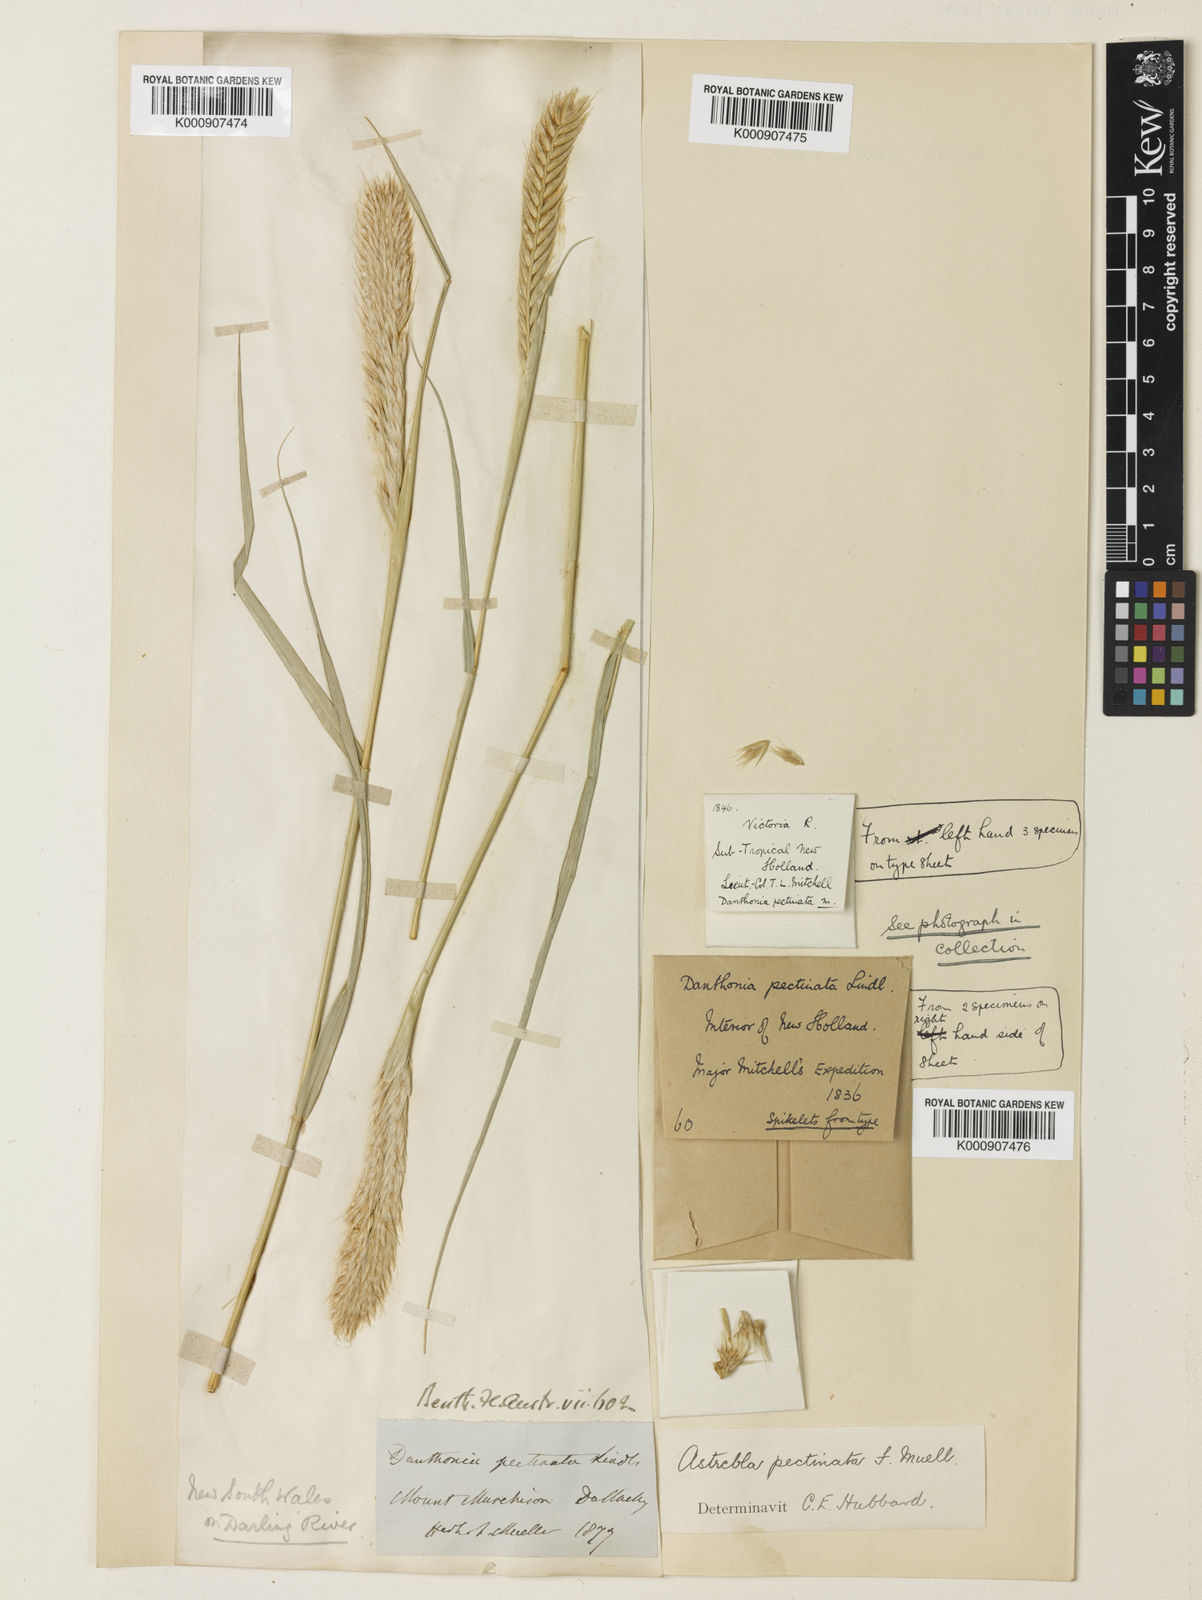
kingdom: Plantae
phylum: Tracheophyta
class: Liliopsida
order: Poales
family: Poaceae
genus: Astrebla
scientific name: Astrebla pectinata
